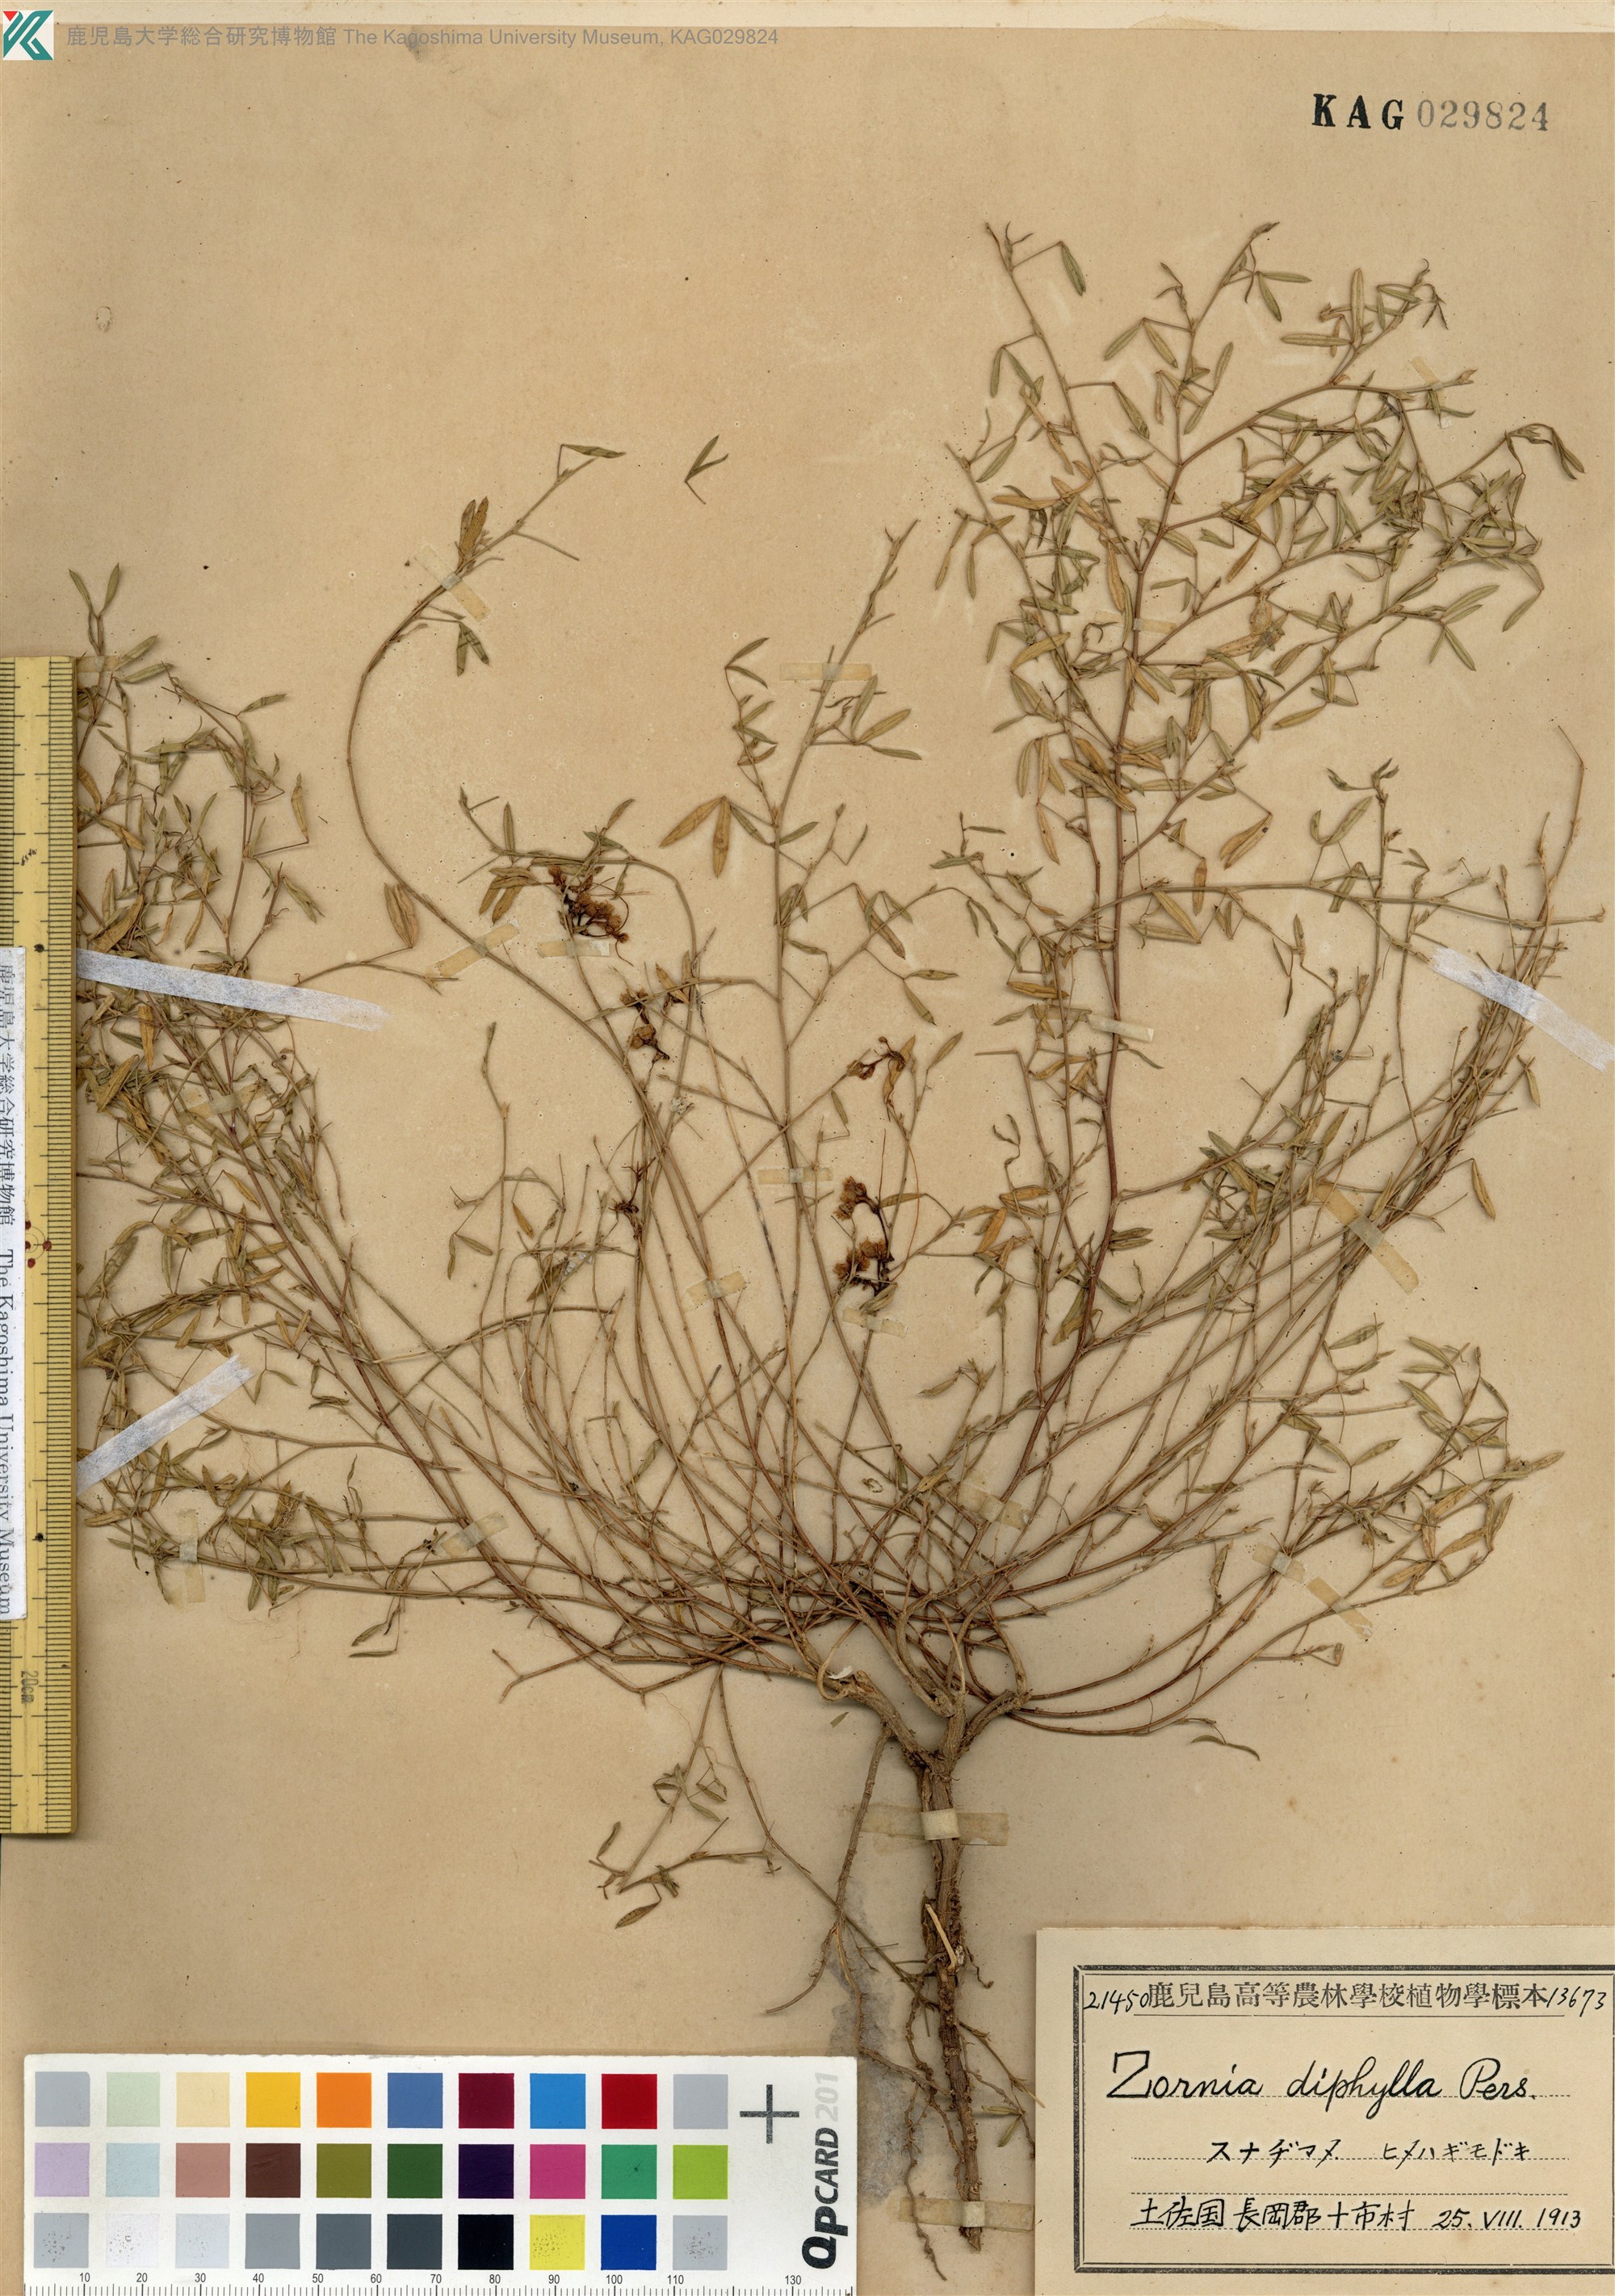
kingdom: Plantae
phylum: Tracheophyta
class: Magnoliopsida
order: Fabales
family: Fabaceae
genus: Zornia
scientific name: Zornia gibbosa
